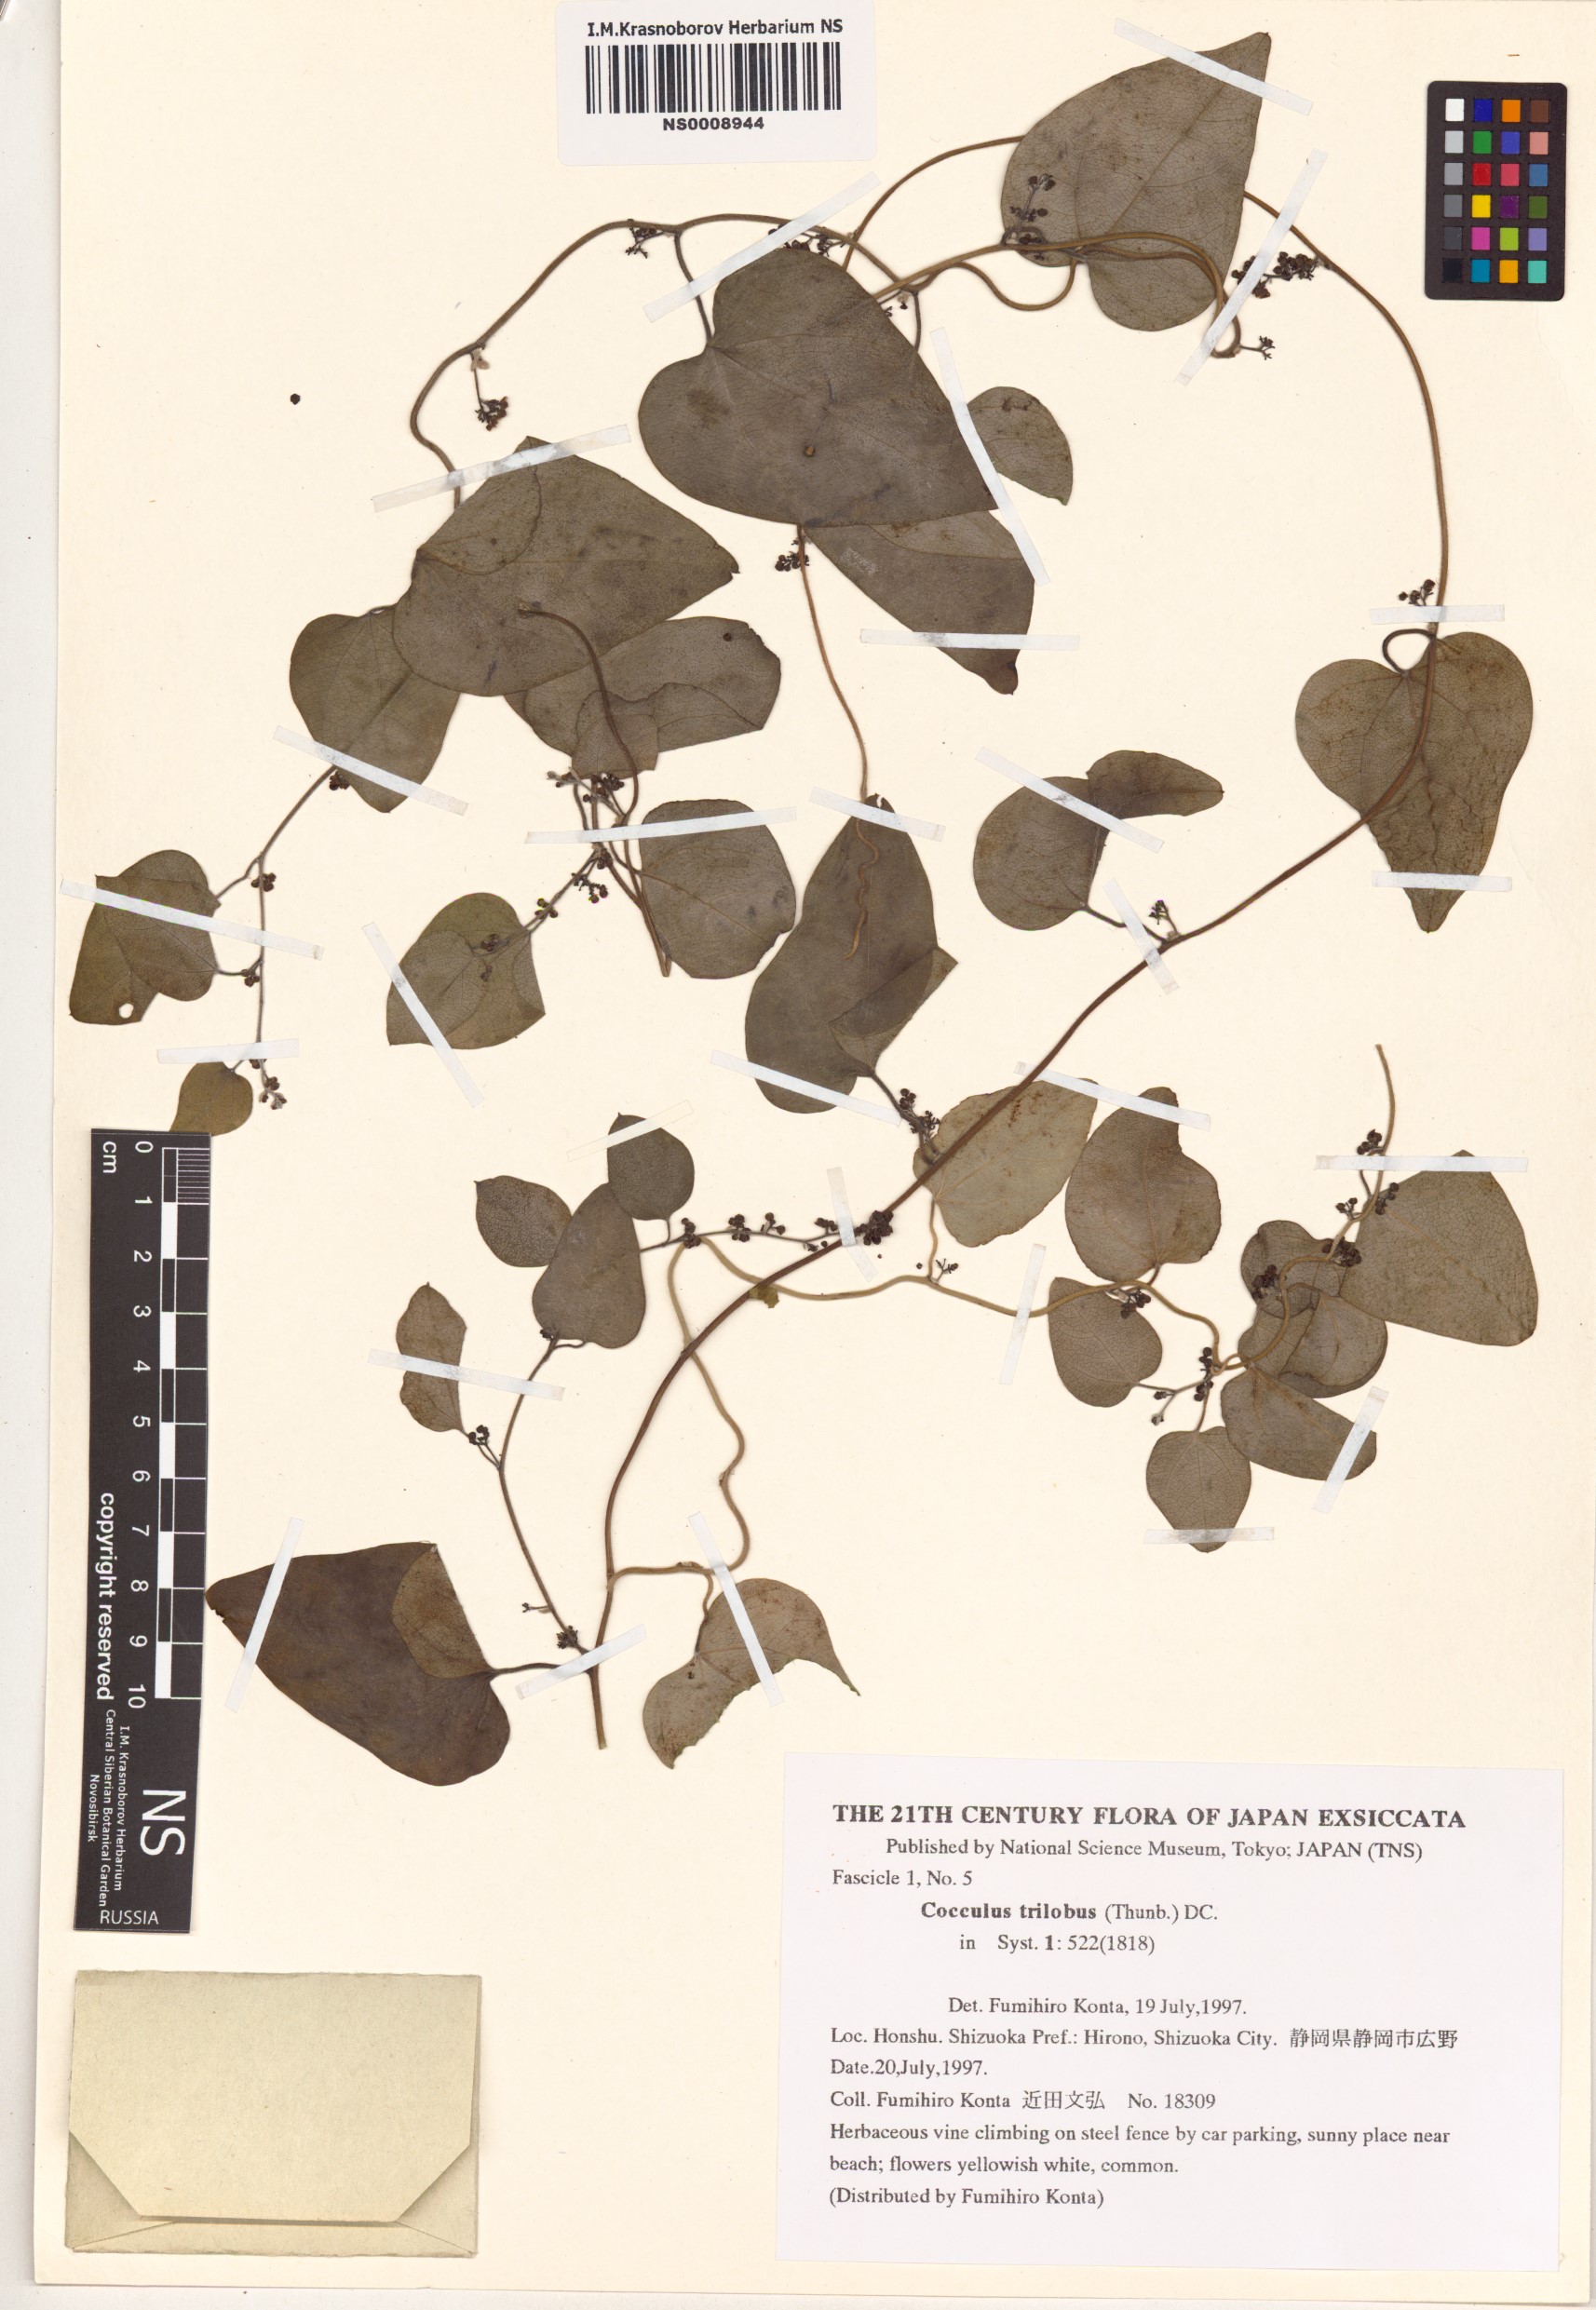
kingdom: Plantae
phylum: Tracheophyta
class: Magnoliopsida
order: Ranunculales
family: Menispermaceae
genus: Cocculus
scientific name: Cocculus orbiculatus
